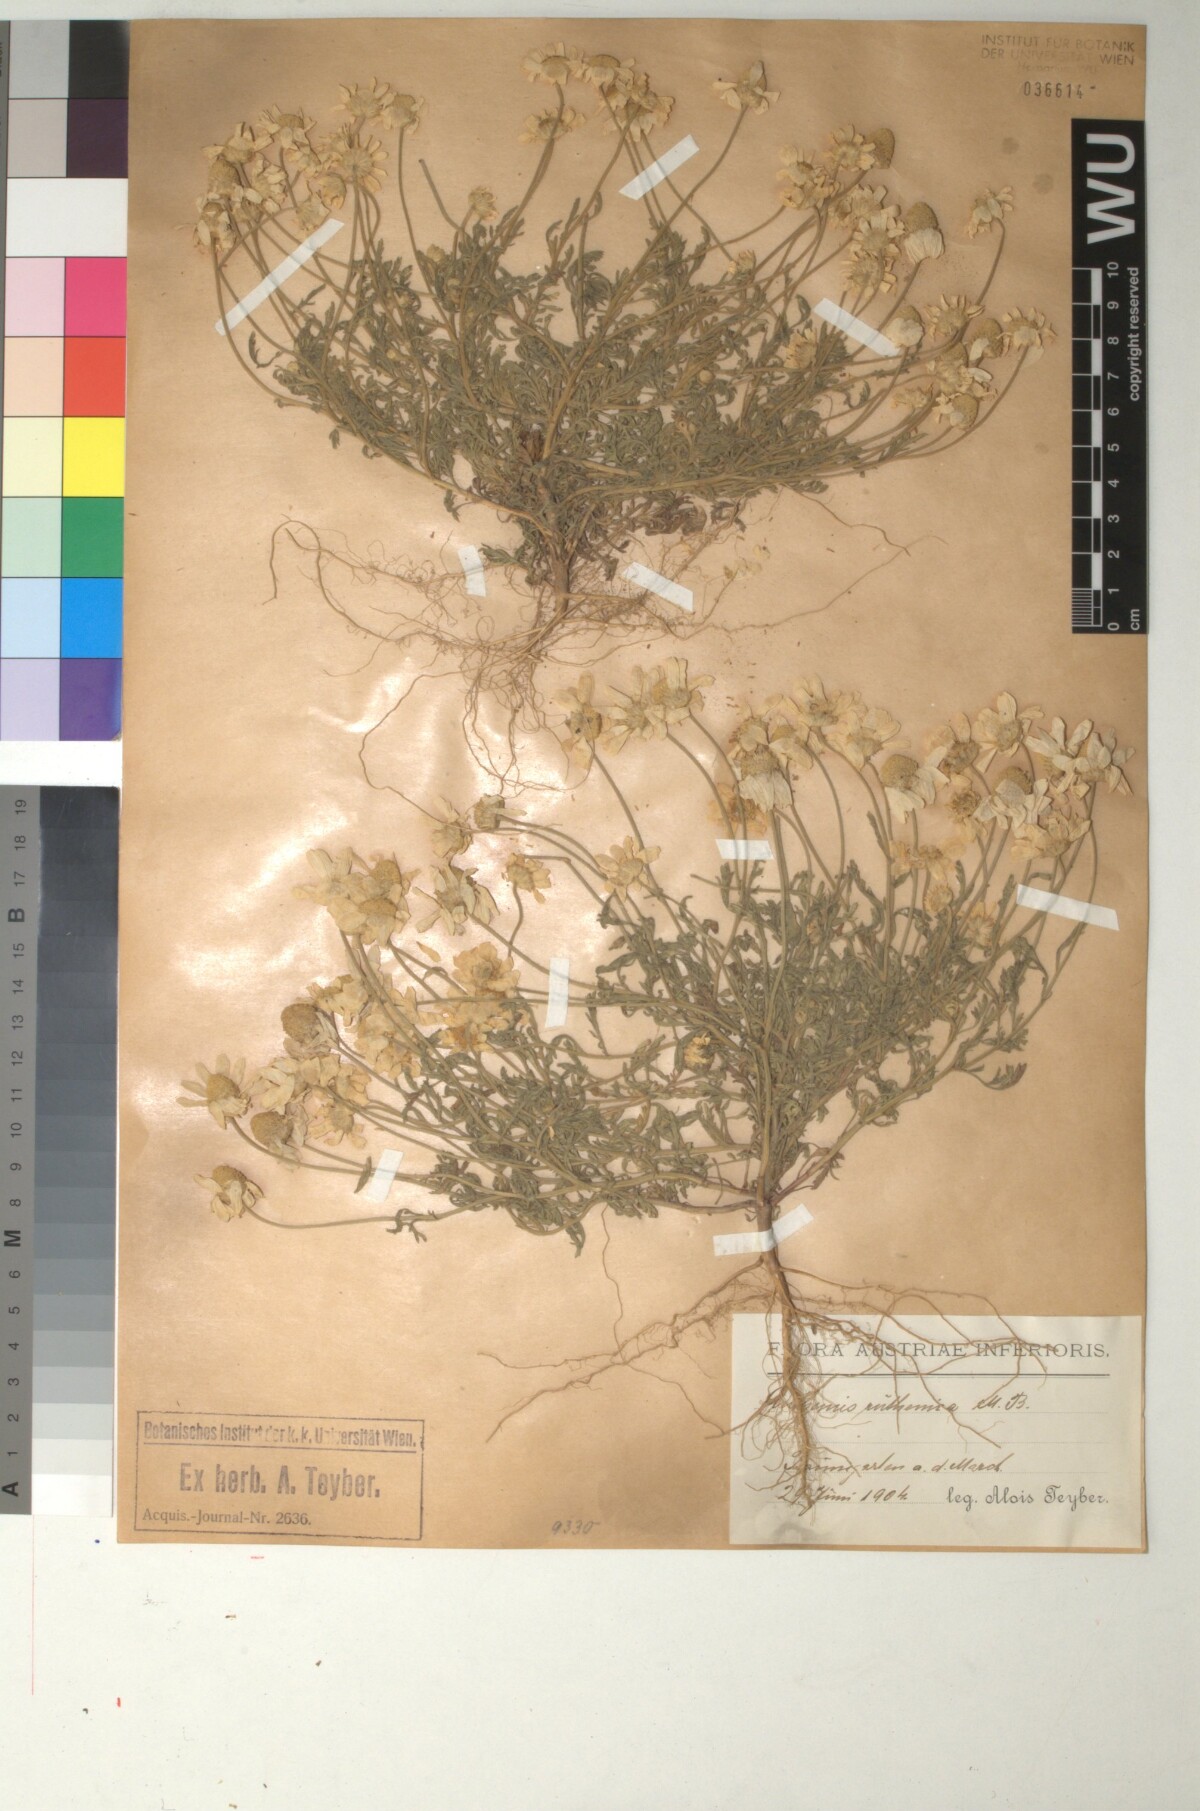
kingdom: Plantae
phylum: Tracheophyta
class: Magnoliopsida
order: Asterales
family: Asteraceae
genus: Anthemis
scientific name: Anthemis ruthenica
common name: Eastern chamomile
